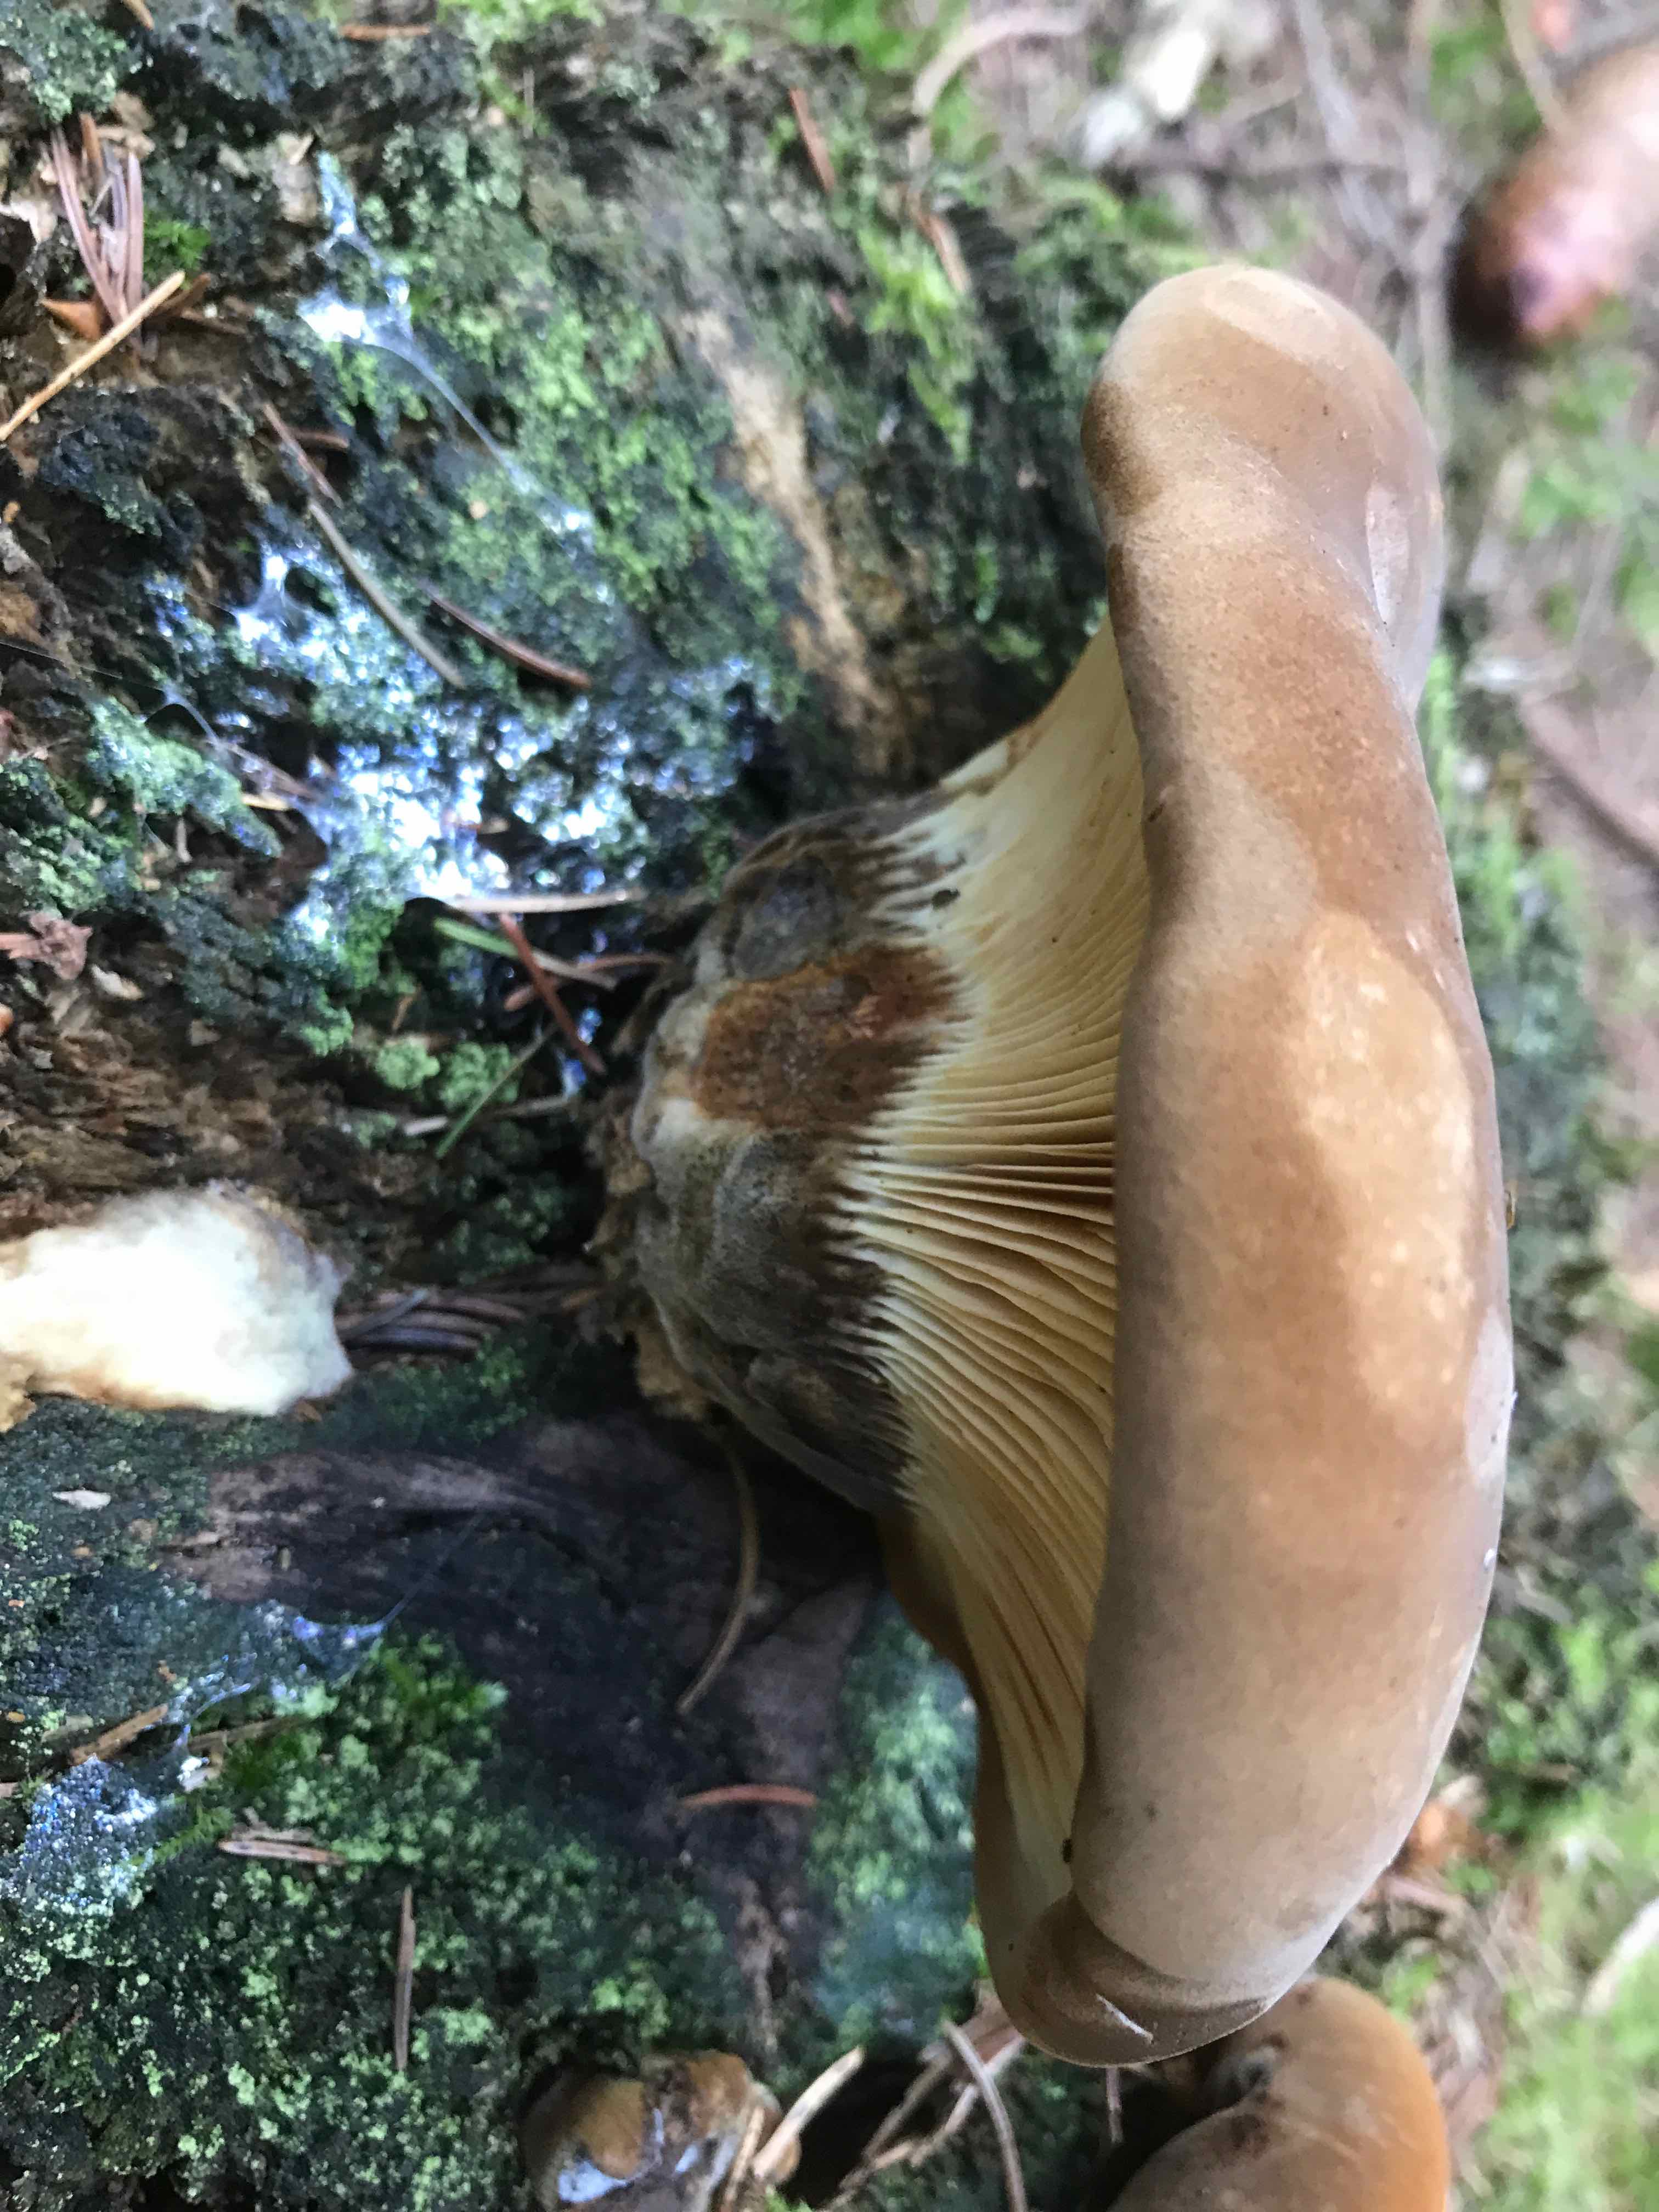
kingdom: Fungi
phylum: Basidiomycota
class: Agaricomycetes
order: Boletales
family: Tapinellaceae
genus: Tapinella
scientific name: Tapinella atrotomentosa
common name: sortfiltet viftesvamp
